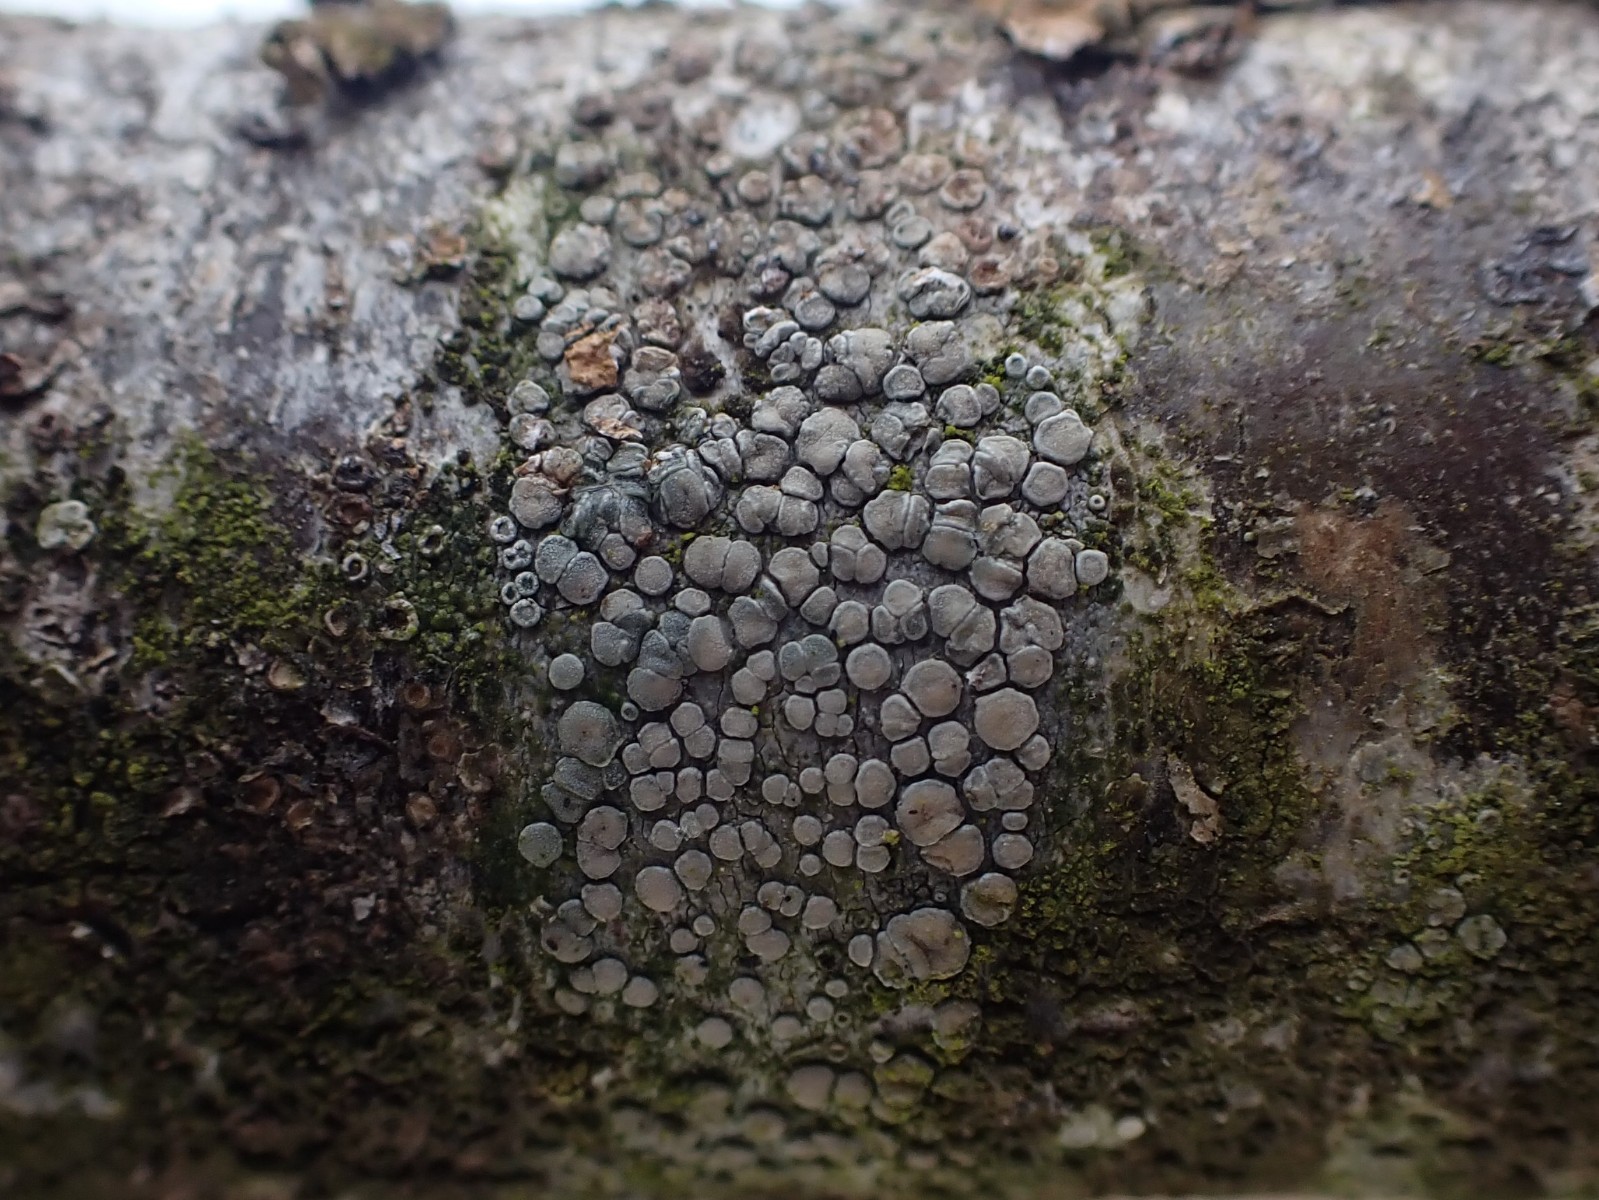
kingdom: Fungi
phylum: Ascomycota
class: Lecanoromycetes
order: Lecanorales
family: Lecanoraceae
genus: Glaucomaria
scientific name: Glaucomaria carpinea
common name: hviddugget kantskivelav
